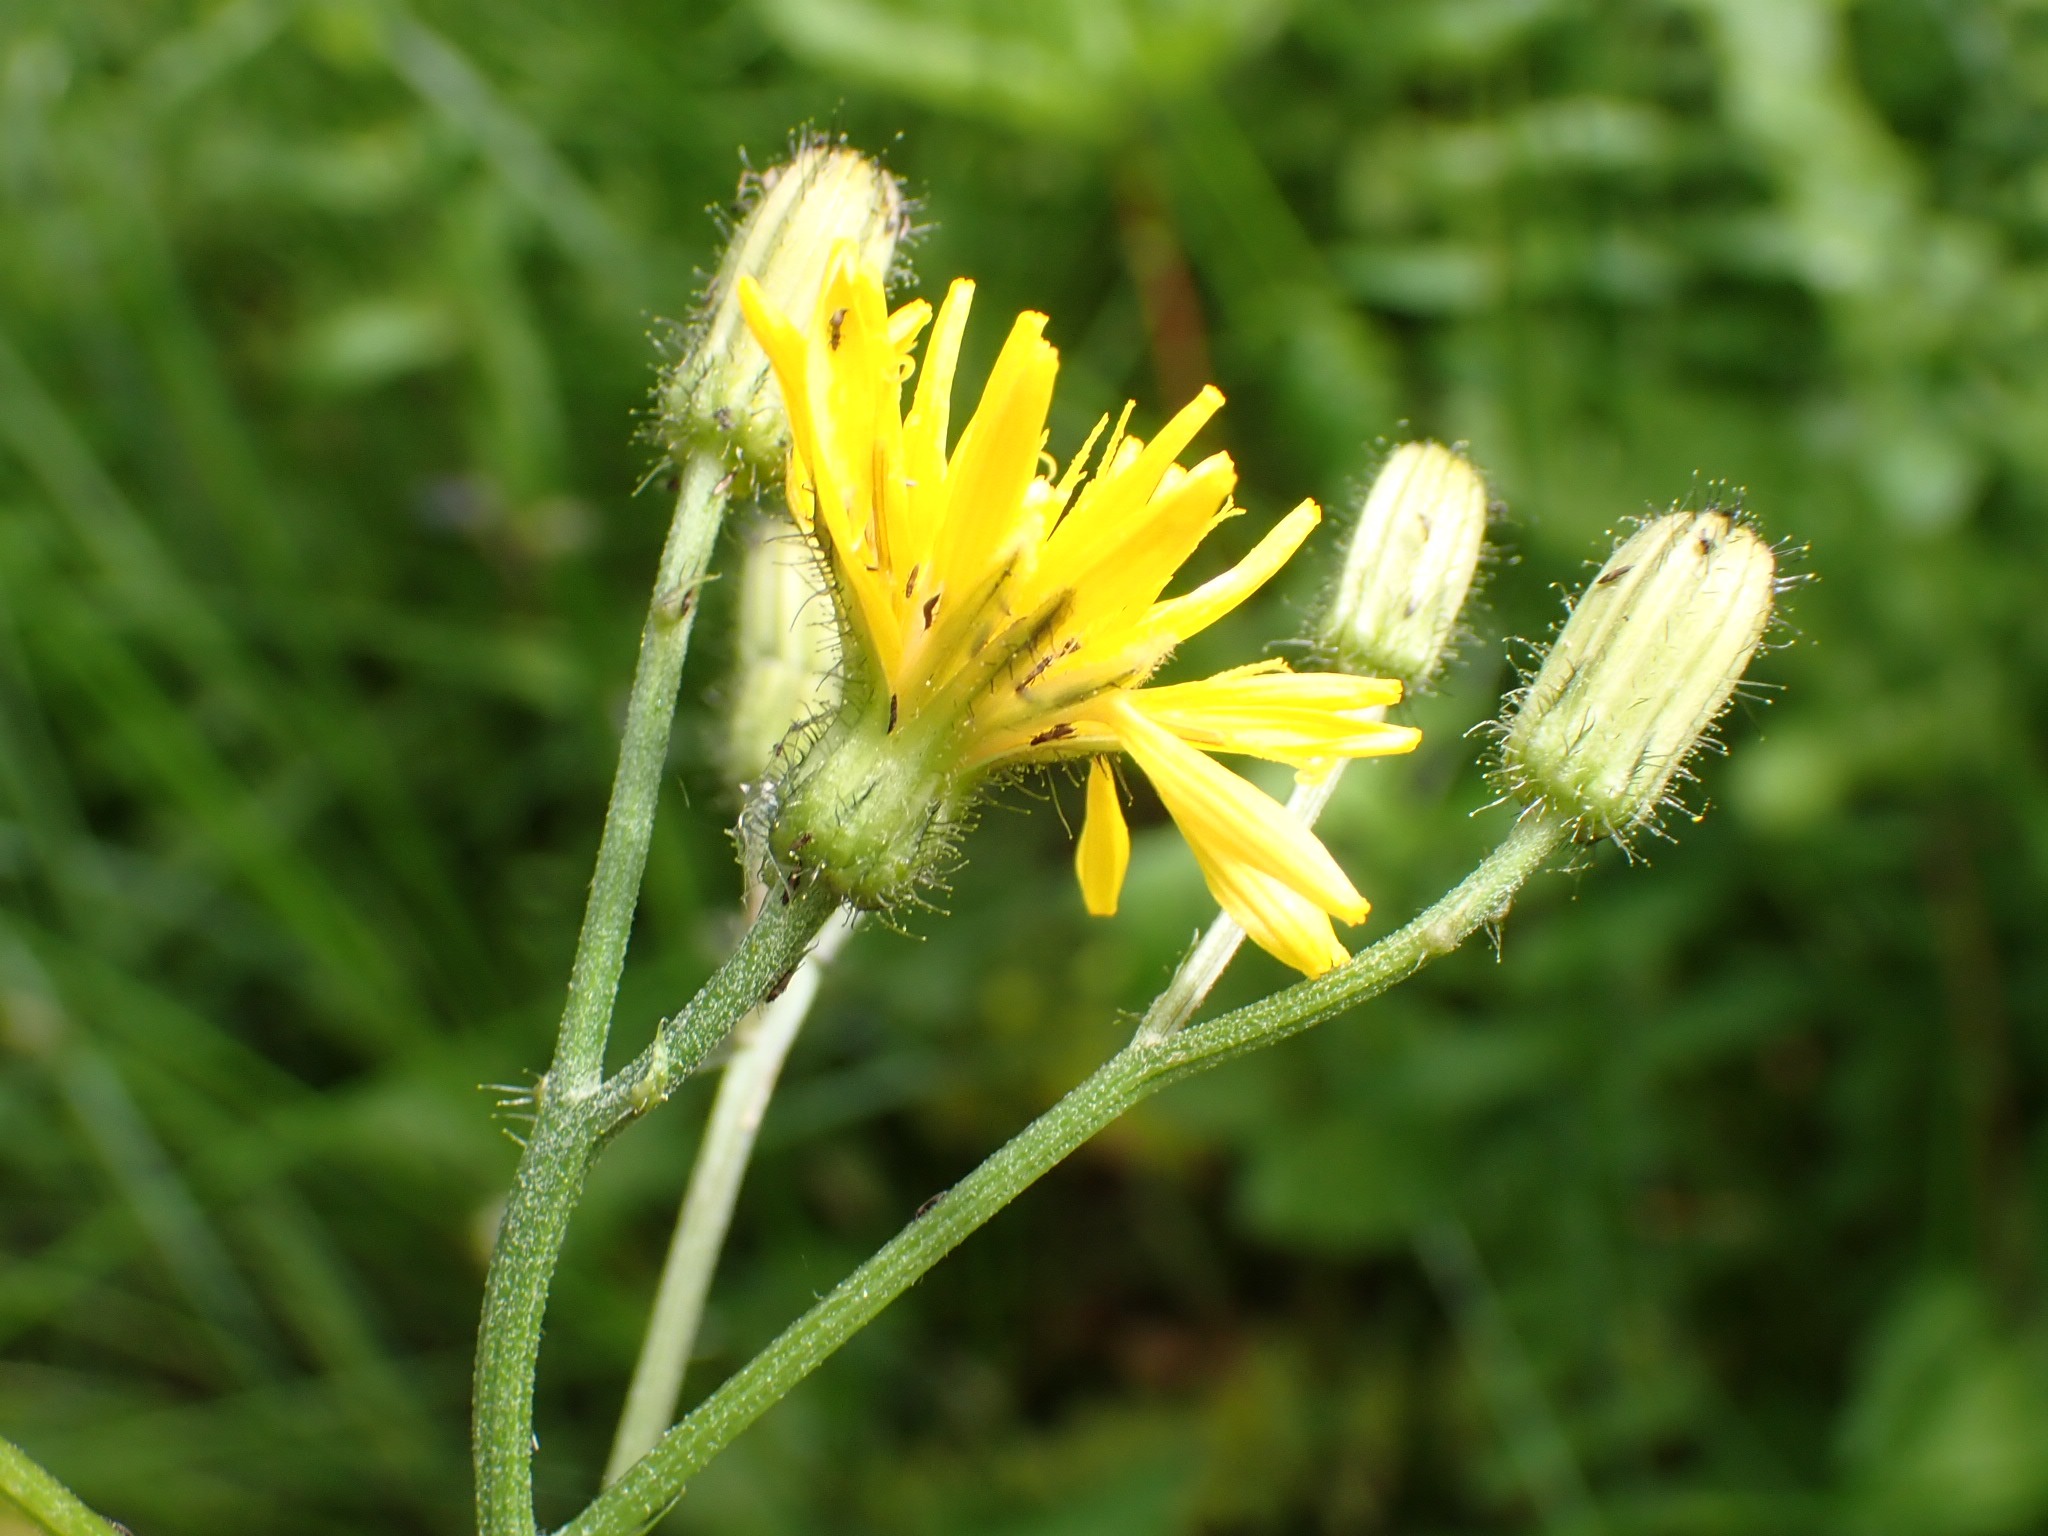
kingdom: Plantae
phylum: Tracheophyta
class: Magnoliopsida
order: Asterales
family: Asteraceae
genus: Crepis
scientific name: Crepis paludosa
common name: Kær-høgeskæg
